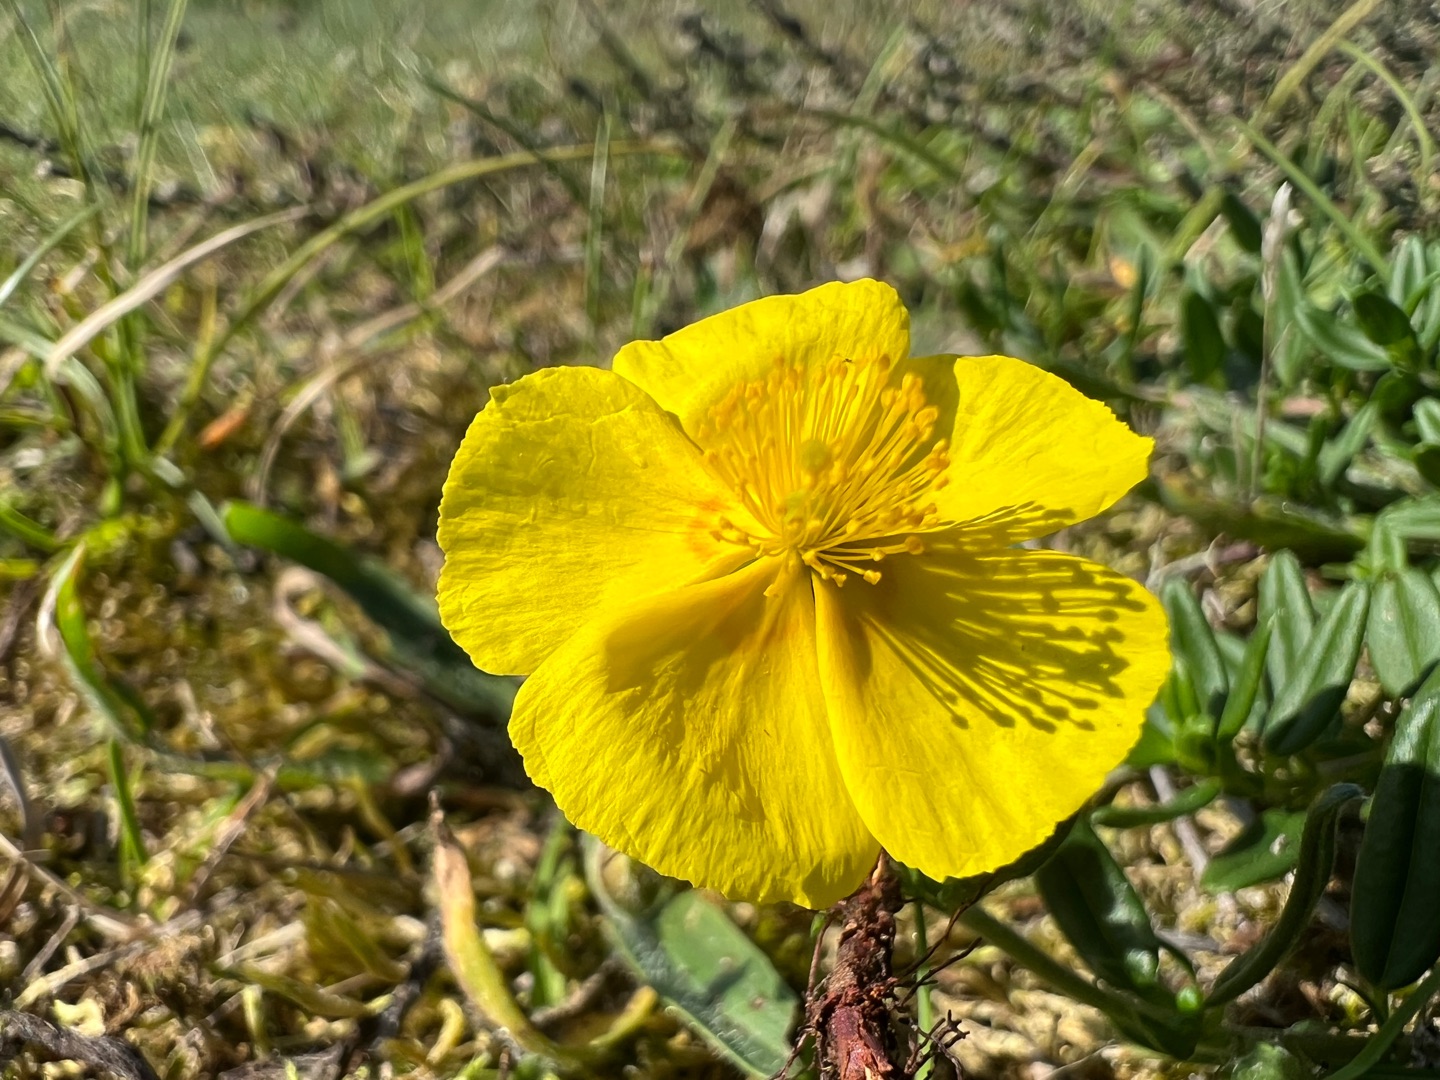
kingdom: Plantae
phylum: Tracheophyta
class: Magnoliopsida
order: Malvales
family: Cistaceae
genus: Helianthemum
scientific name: Helianthemum nummularium
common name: Bakke-soløje
